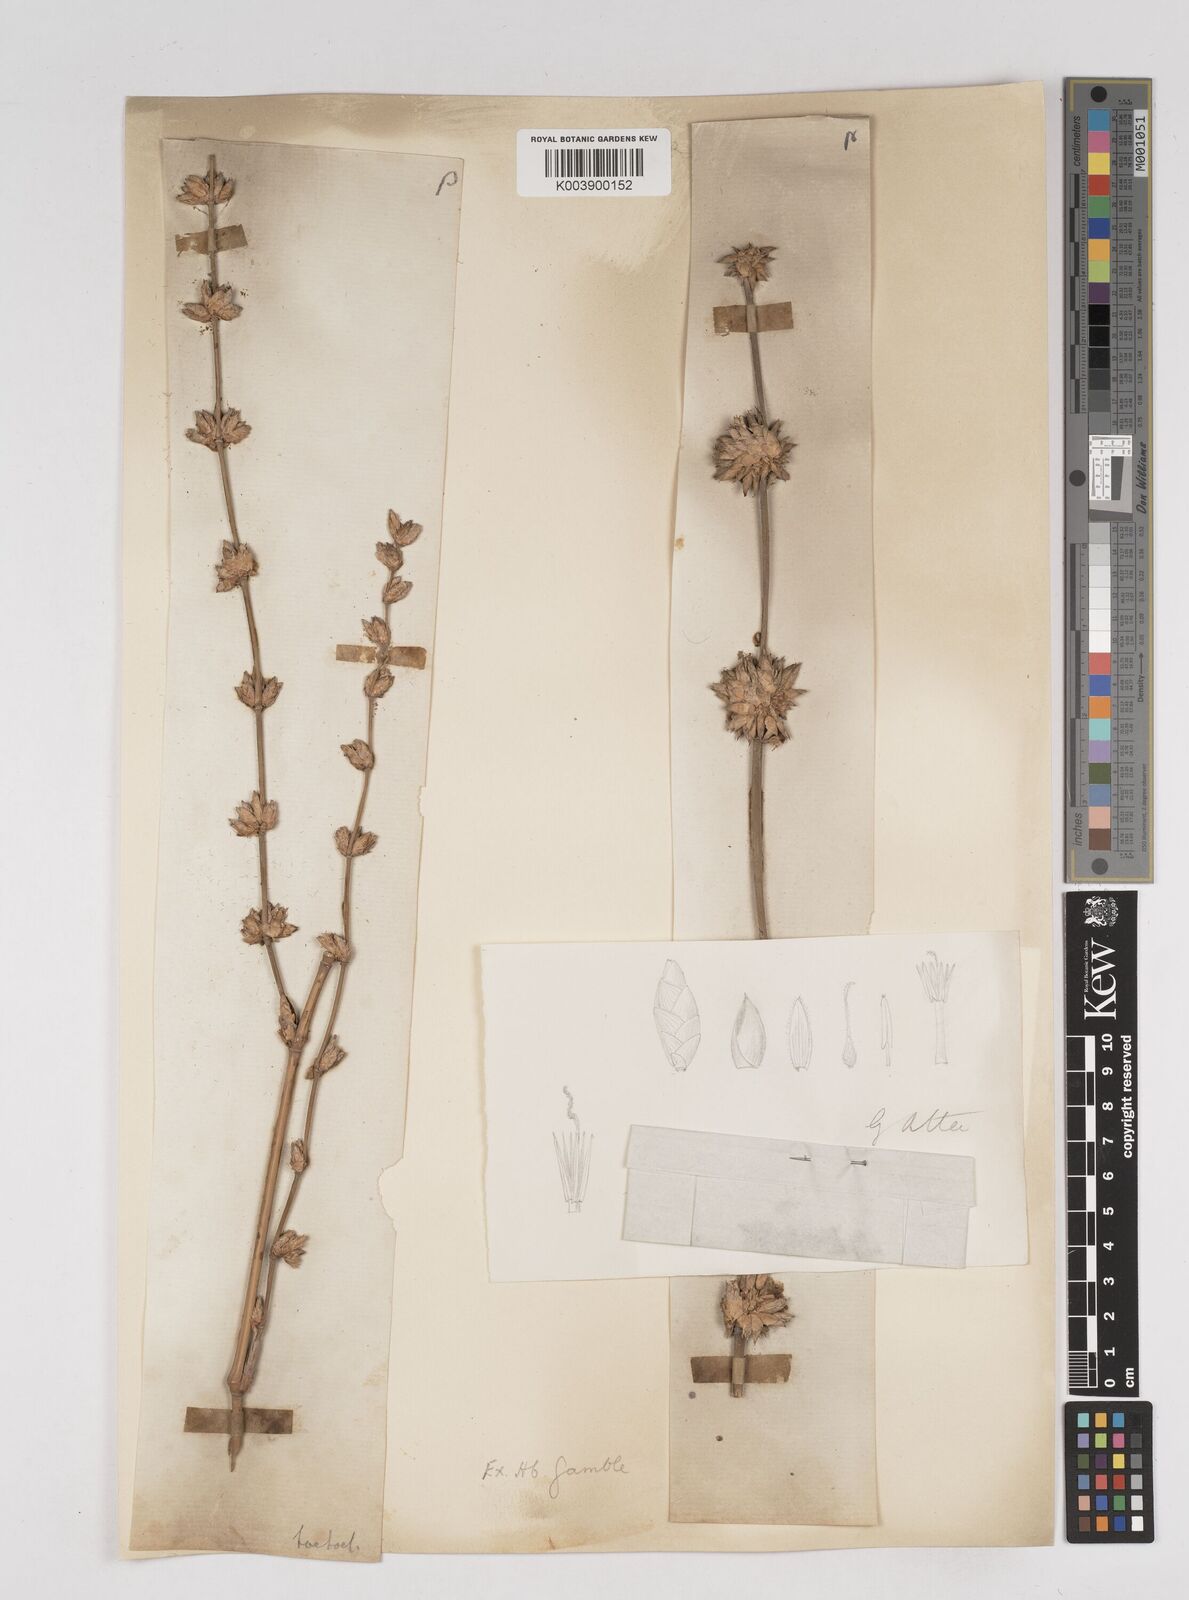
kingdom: Plantae
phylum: Tracheophyta
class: Liliopsida
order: Poales
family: Poaceae
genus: Gigantochloa
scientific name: Gigantochloa atter
